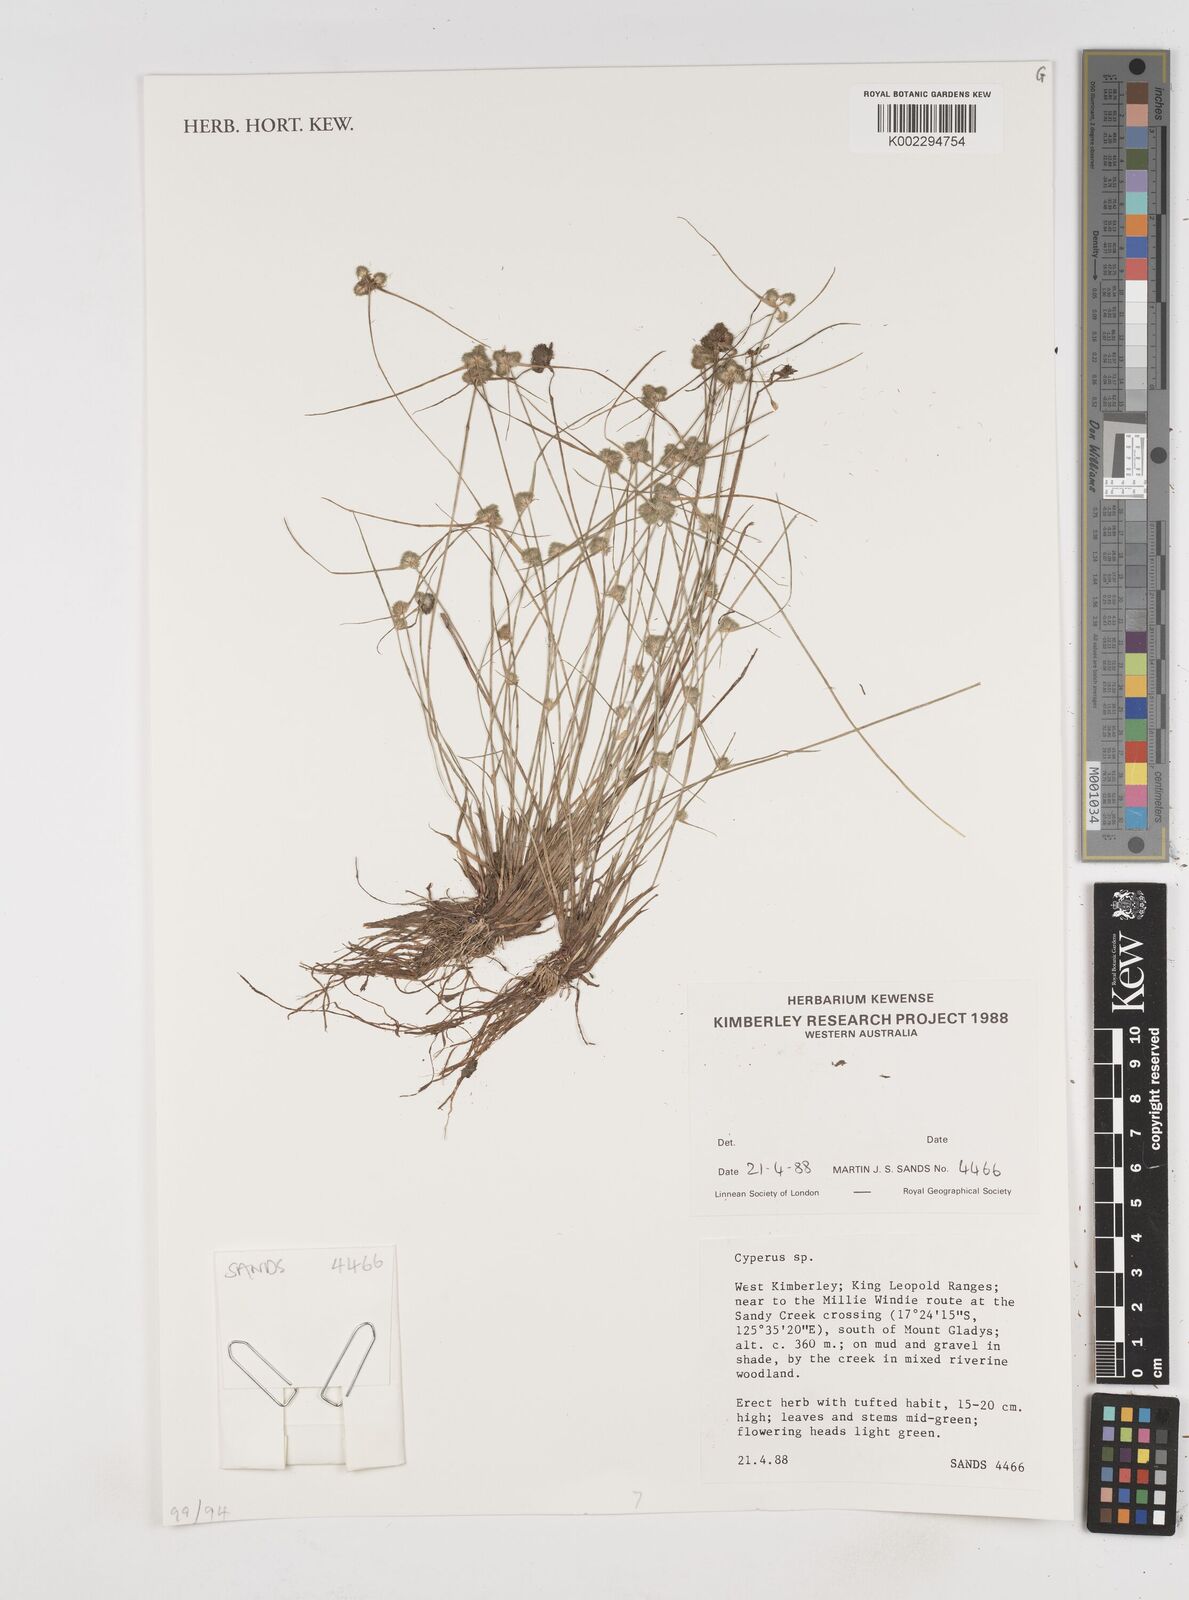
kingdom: Plantae
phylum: Tracheophyta
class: Liliopsida
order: Poales
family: Cyperaceae
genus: Cyperus
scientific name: Cyperus
